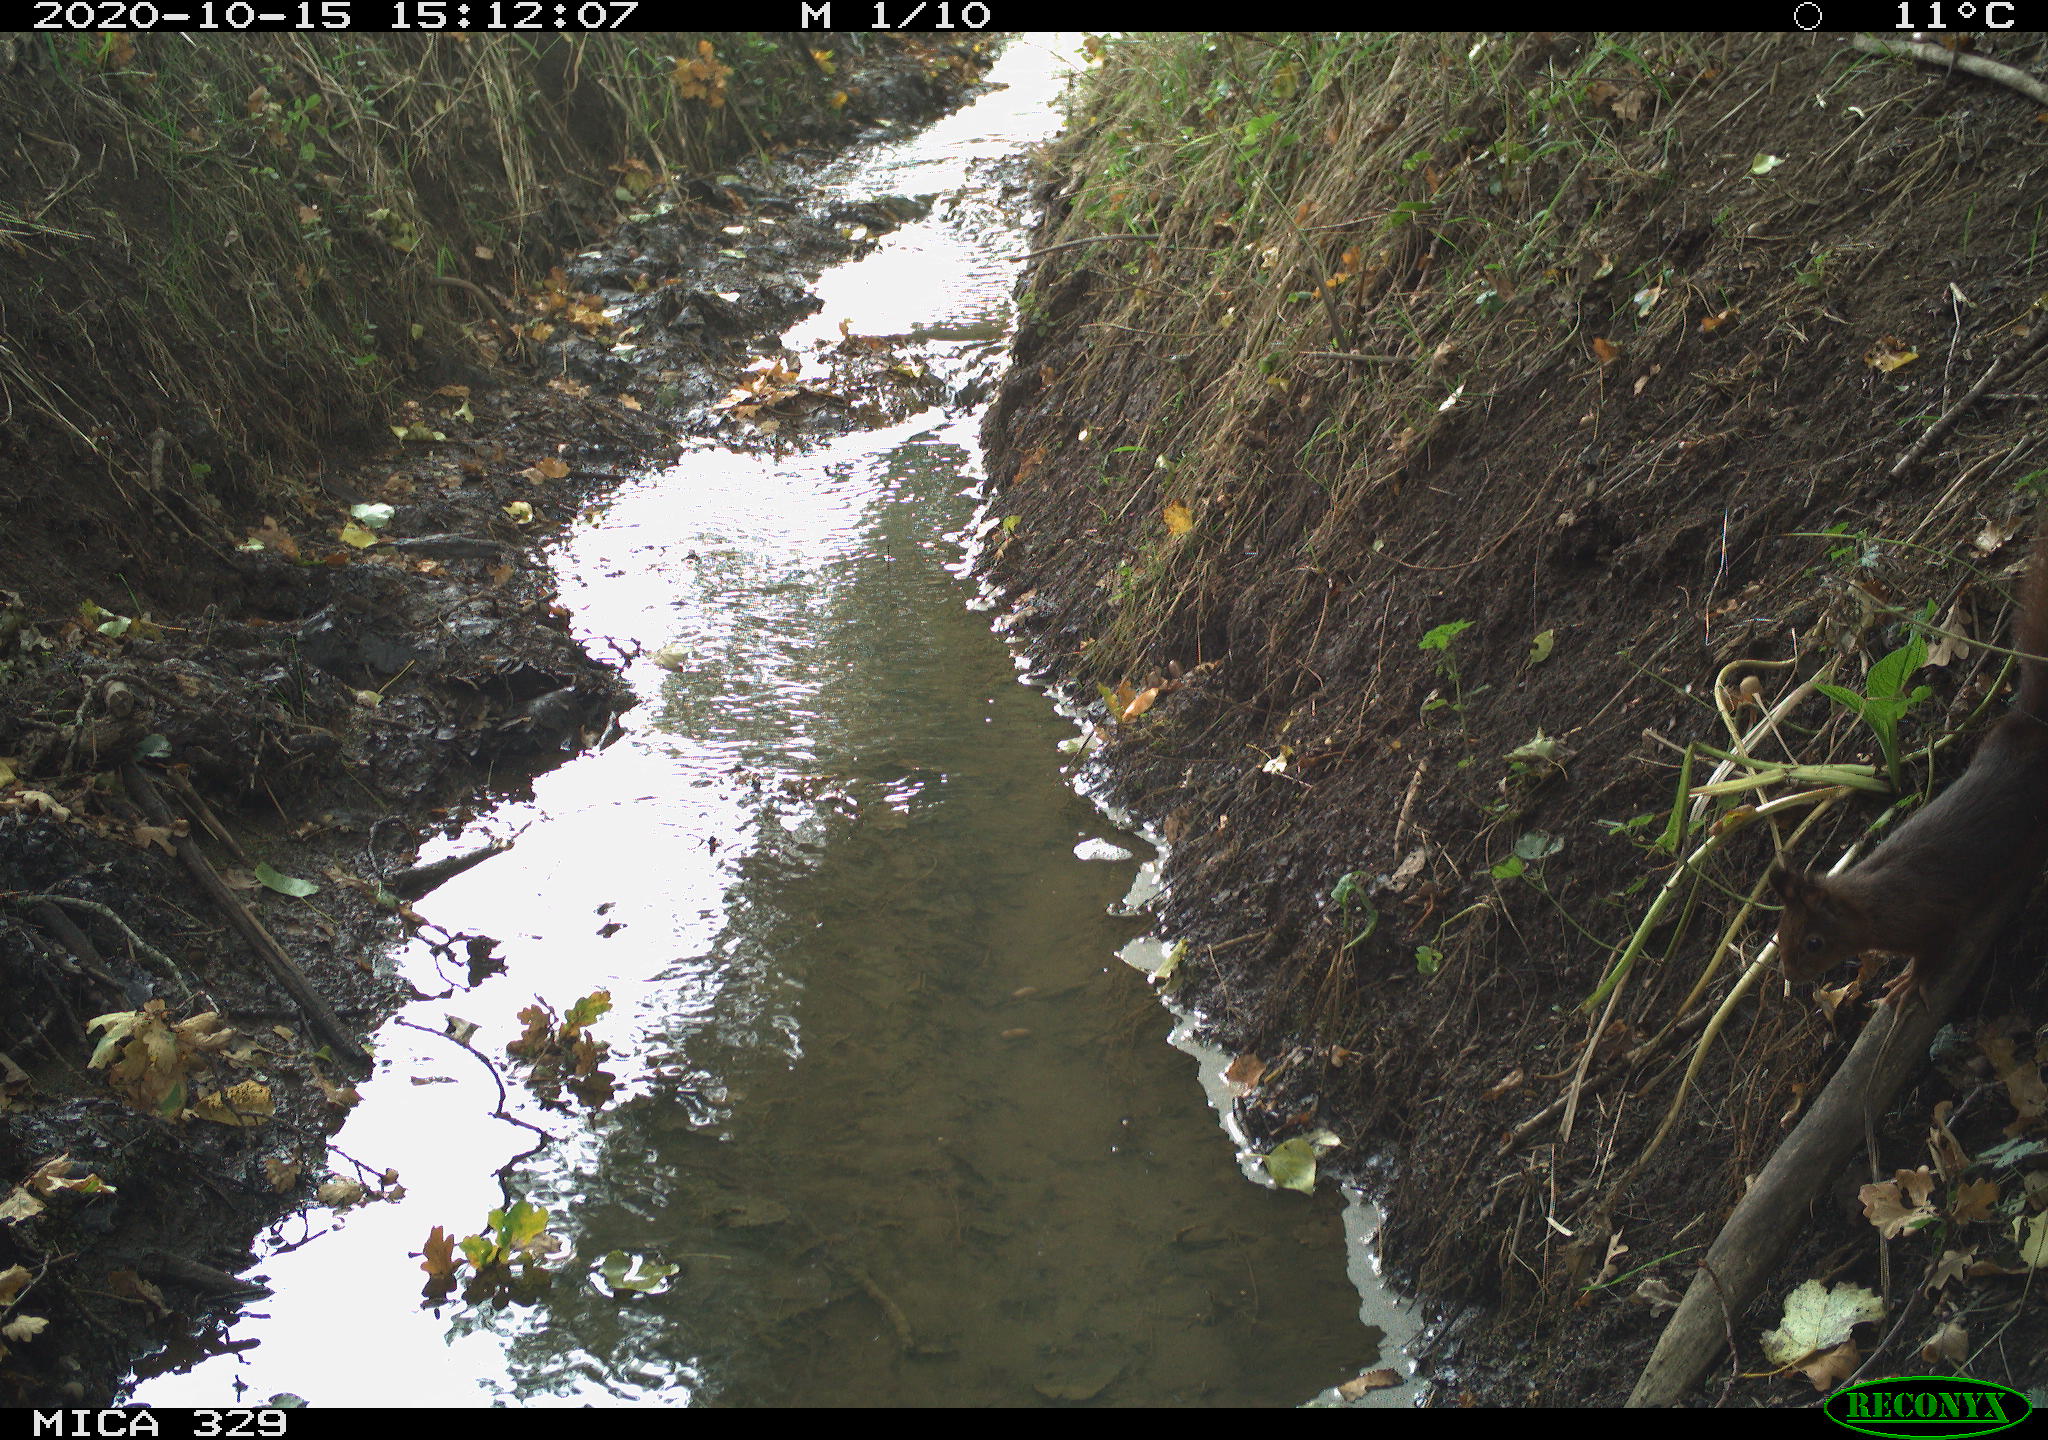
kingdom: Animalia
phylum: Chordata
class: Mammalia
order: Rodentia
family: Sciuridae
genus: Sciurus
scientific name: Sciurus vulgaris
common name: Eurasian red squirrel
